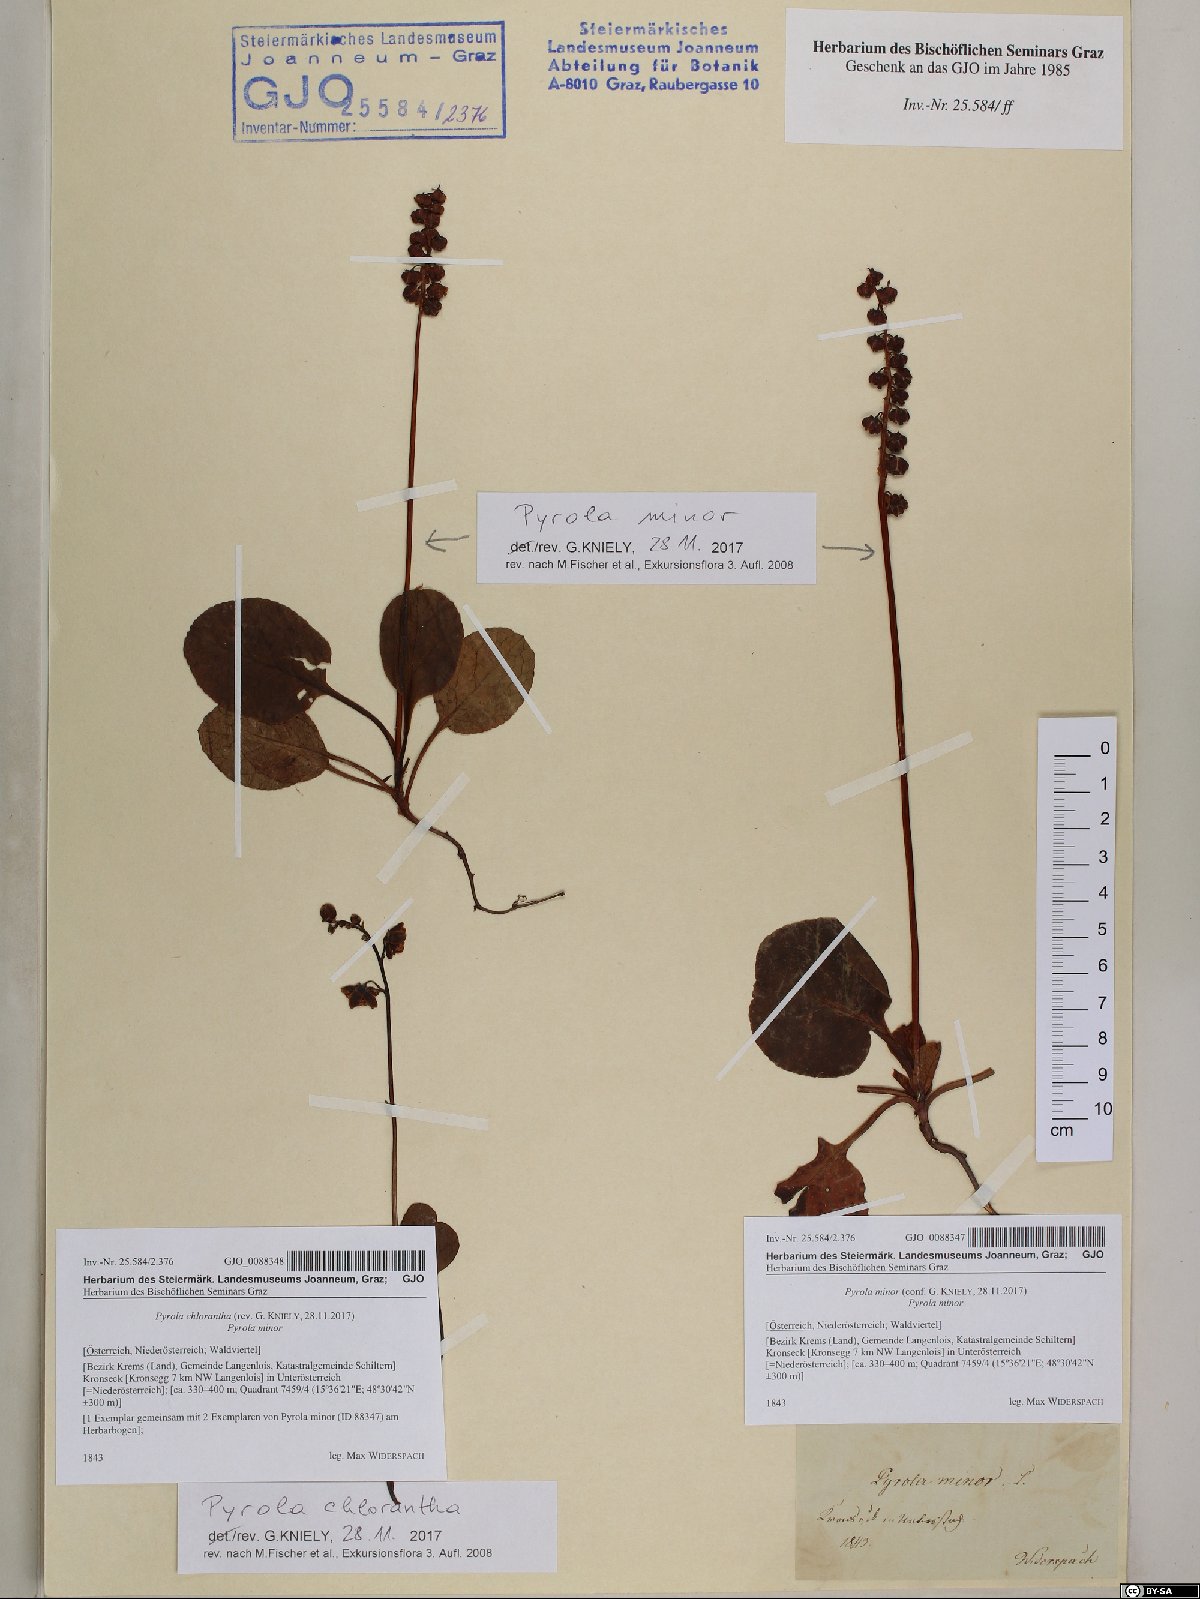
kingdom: Plantae
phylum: Tracheophyta
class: Magnoliopsida
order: Ericales
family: Ericaceae
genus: Pyrola
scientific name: Pyrola chlorantha
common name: Green wintergreen
